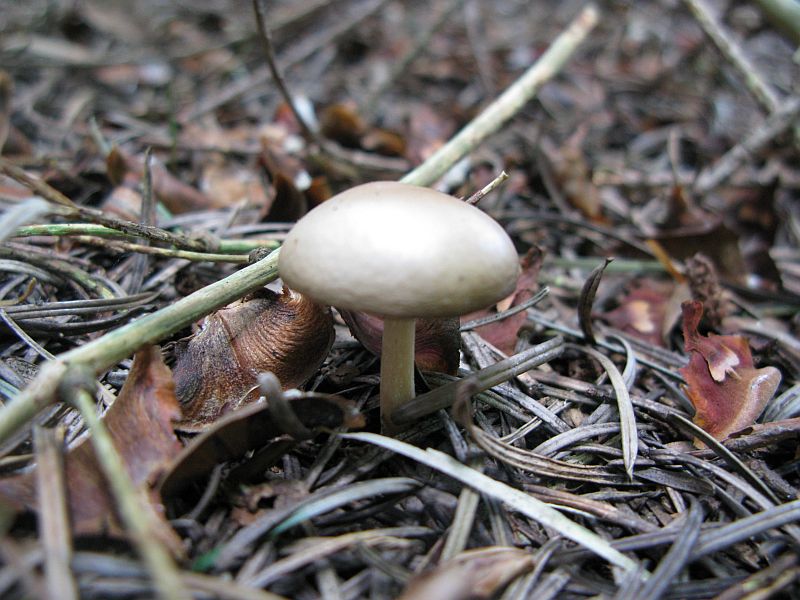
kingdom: Fungi
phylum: Basidiomycota
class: Agaricomycetes
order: Agaricales
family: Omphalotaceae
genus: Gymnopus
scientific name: Gymnopus aquosus
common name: bleg fladhat
